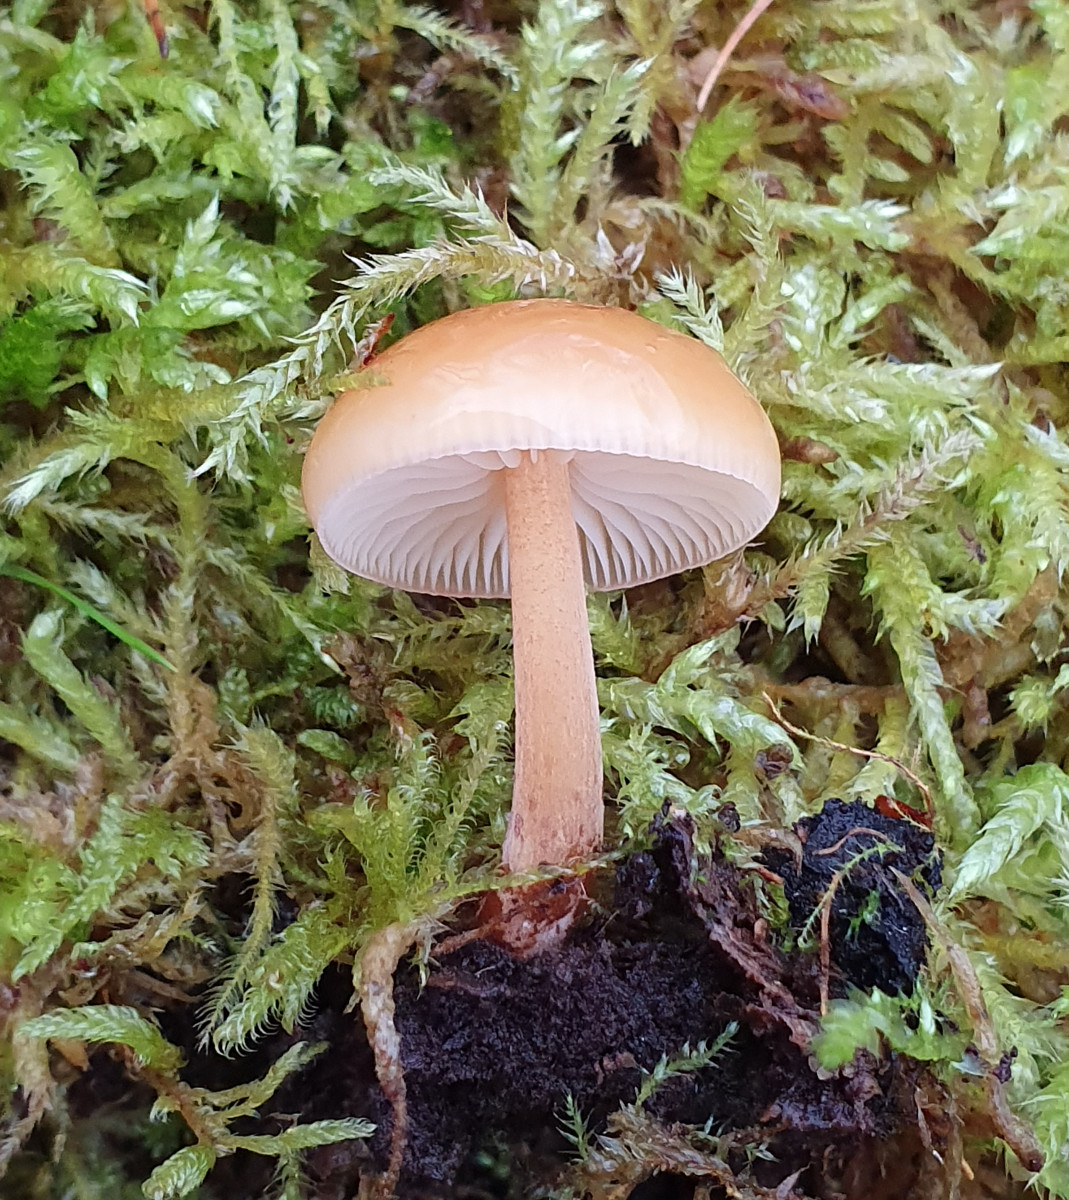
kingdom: Fungi
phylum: Basidiomycota
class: Agaricomycetes
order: Agaricales
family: Physalacriaceae
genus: Flammulina
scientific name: Flammulina
